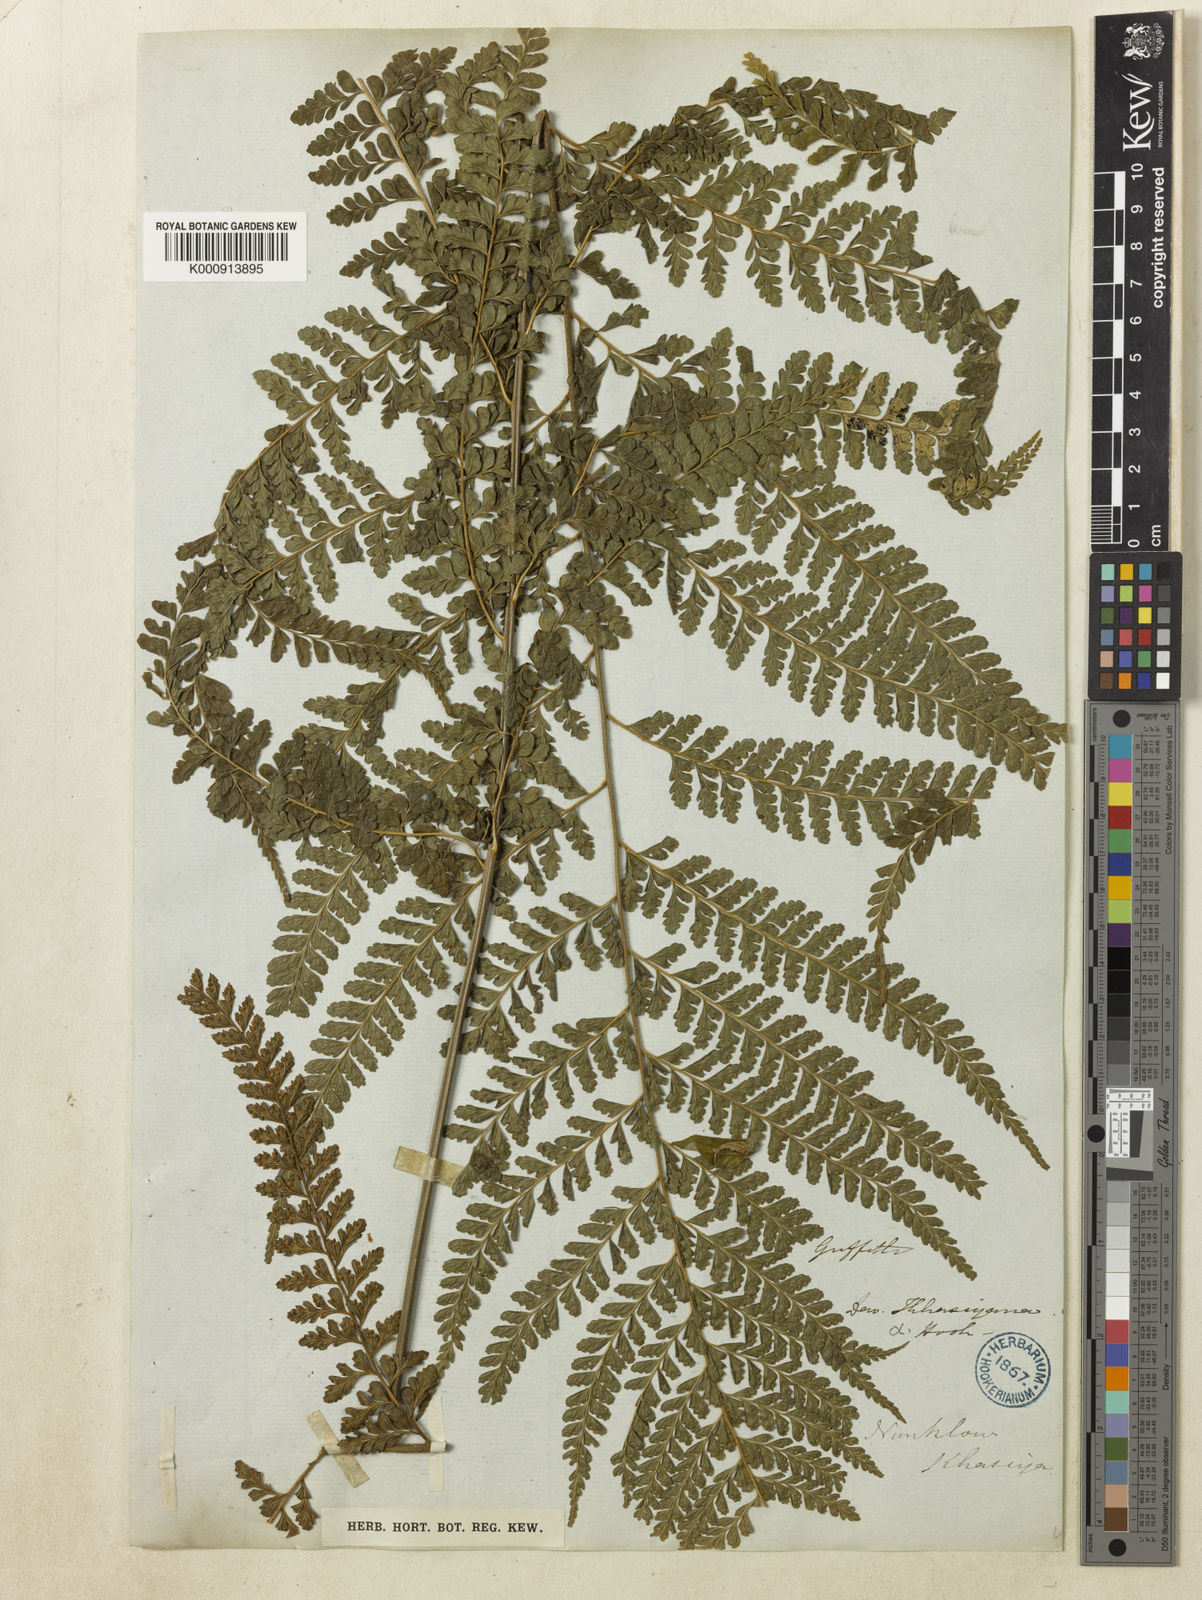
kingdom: Plantae
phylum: Tracheophyta
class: Polypodiopsida
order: Polypodiales
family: Dennstaedtiaceae
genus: Microlepia
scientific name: Microlepia strigosa
